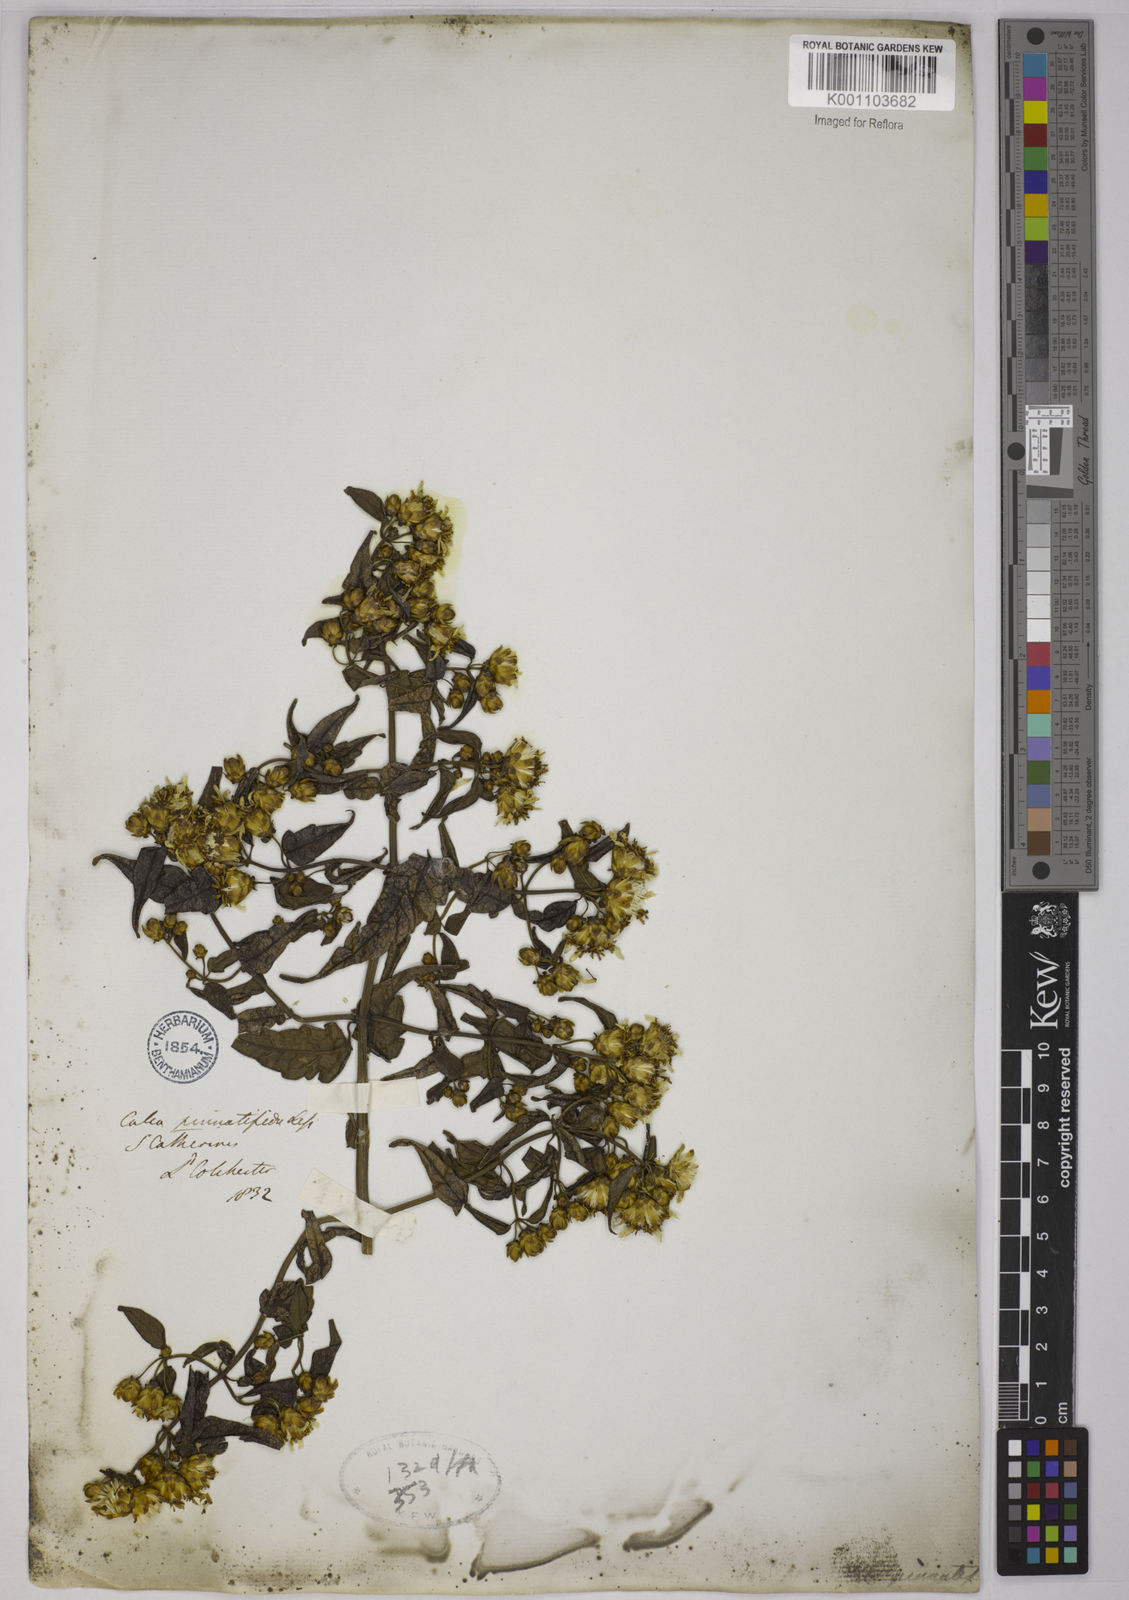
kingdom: Plantae
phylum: Tracheophyta
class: Magnoliopsida
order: Asterales
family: Asteraceae
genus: Calea
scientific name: Calea
